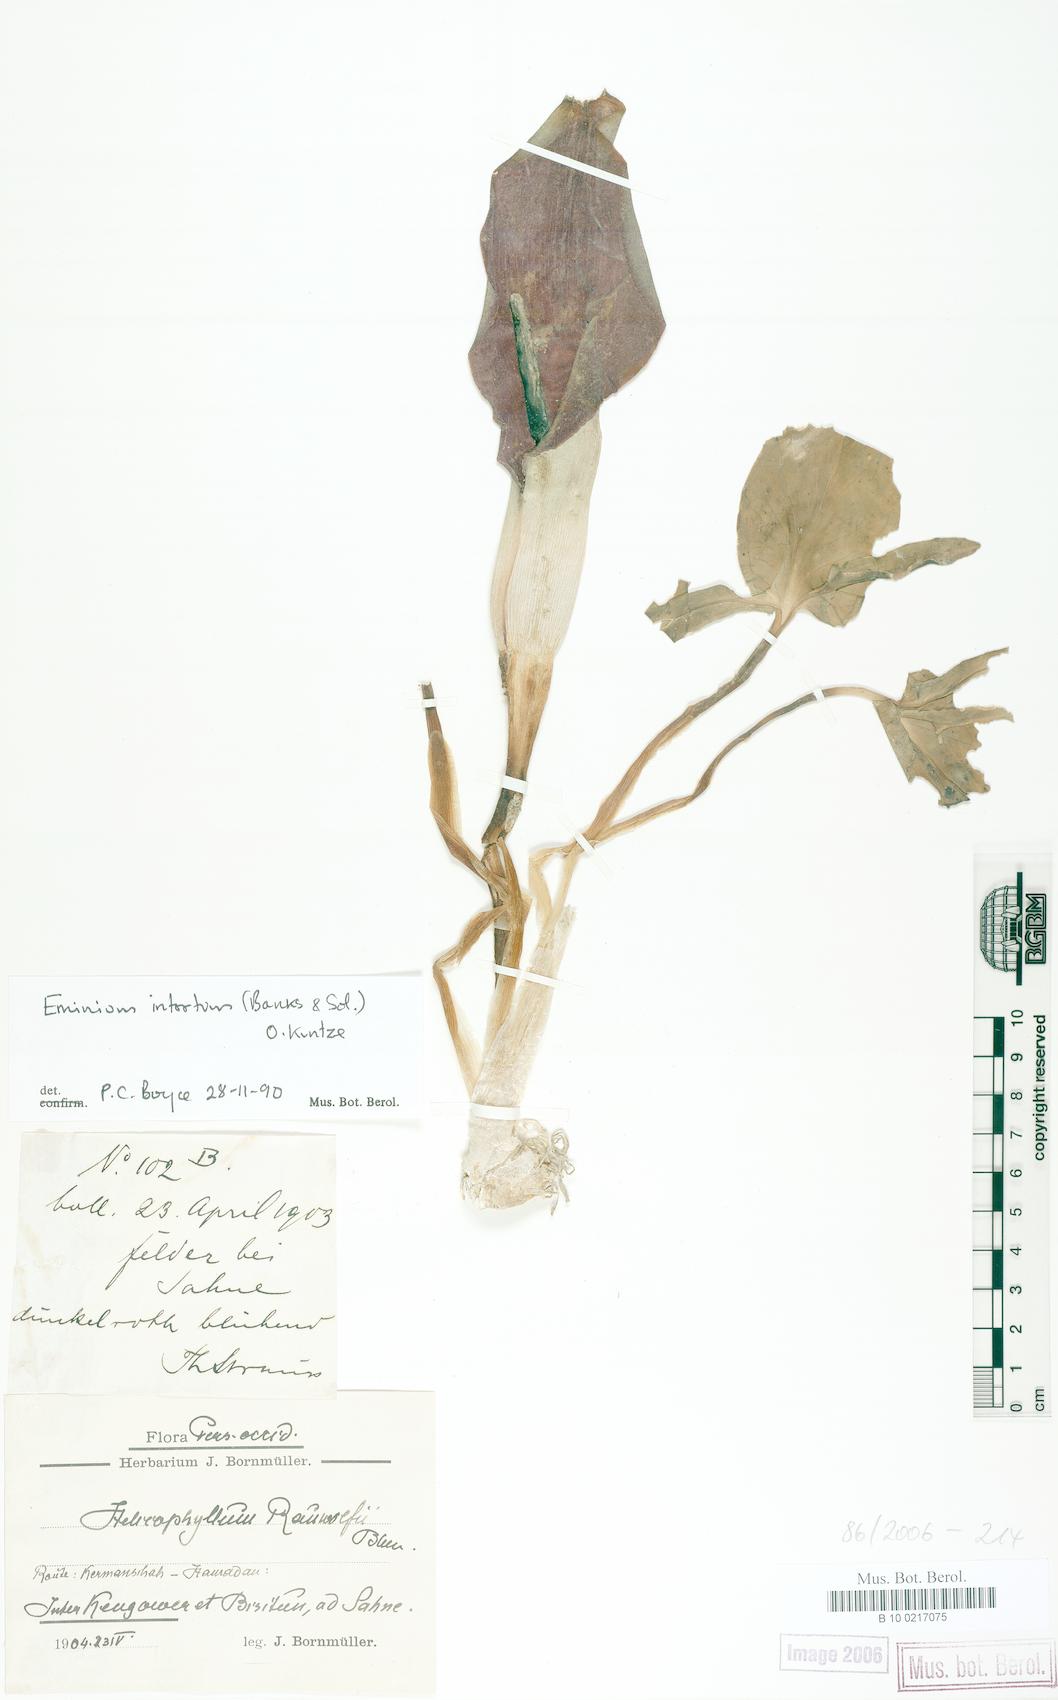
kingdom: Plantae
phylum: Tracheophyta
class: Liliopsida
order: Alismatales
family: Araceae
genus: Eminium
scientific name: Eminium intortum
